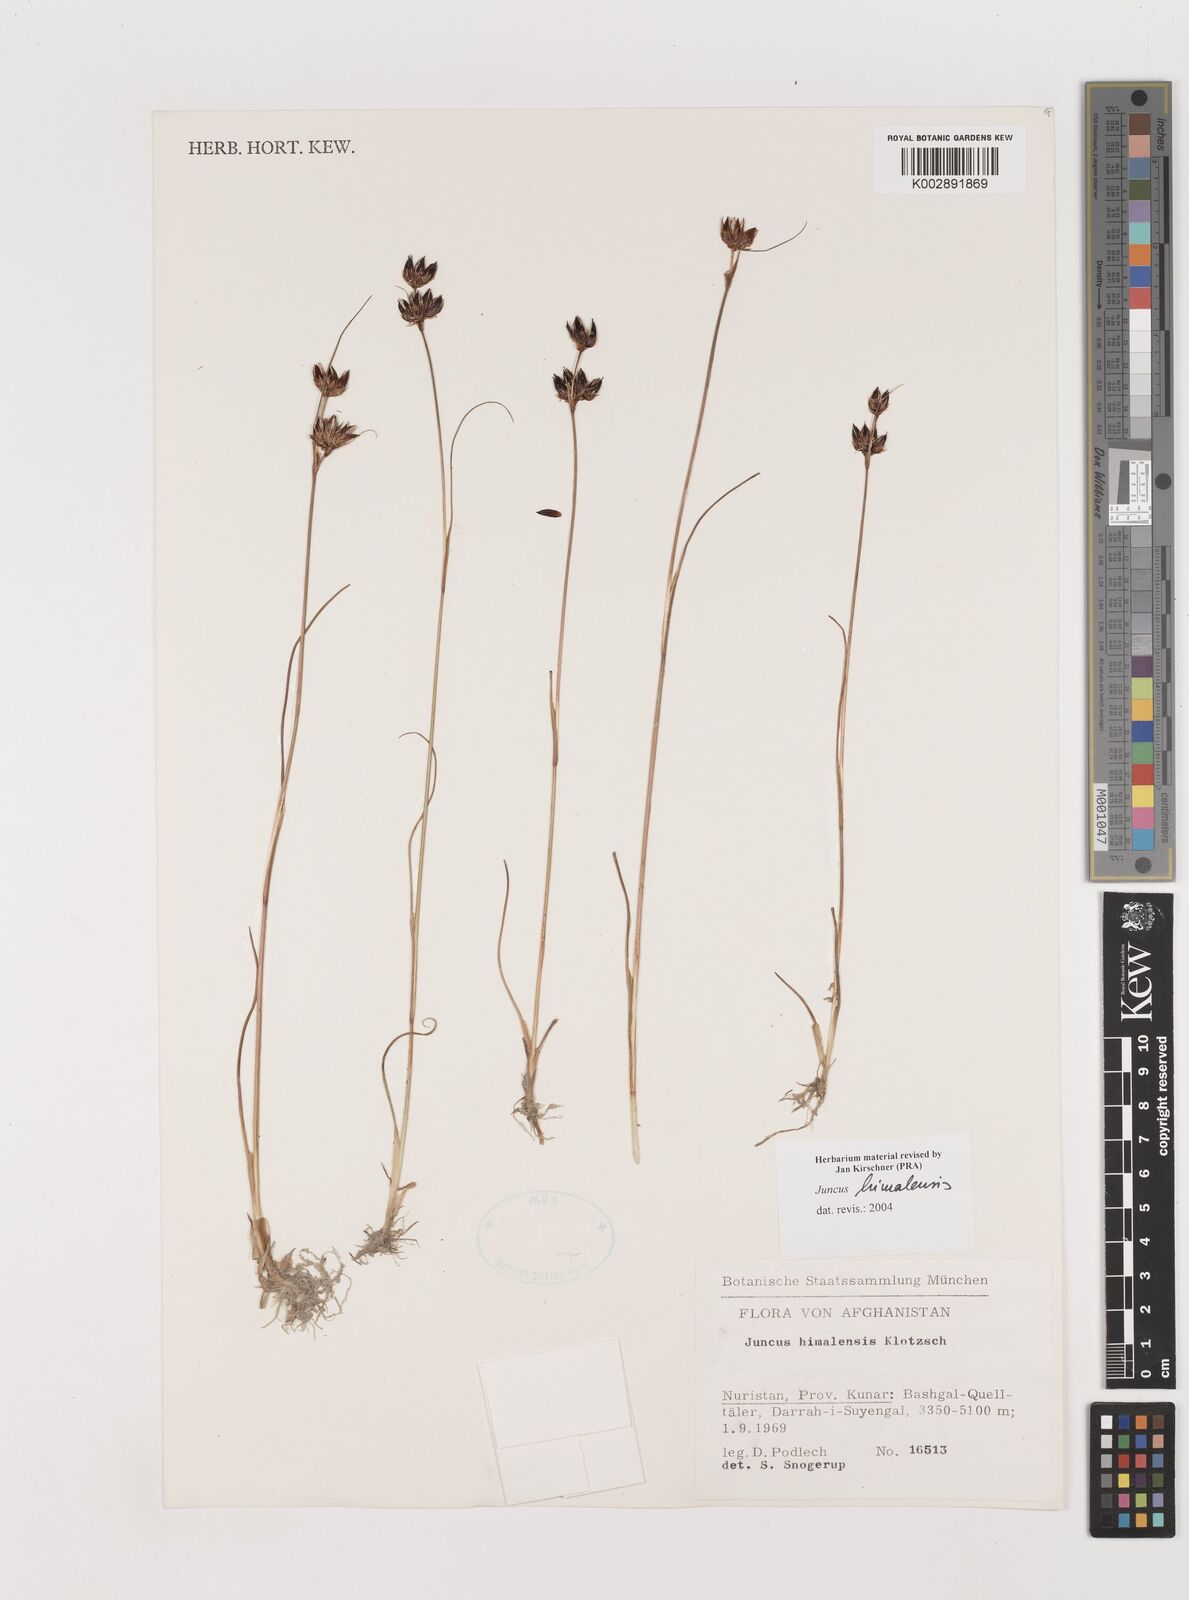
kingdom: Plantae
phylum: Tracheophyta
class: Liliopsida
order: Poales
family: Juncaceae
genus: Juncus
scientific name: Juncus himalensis
